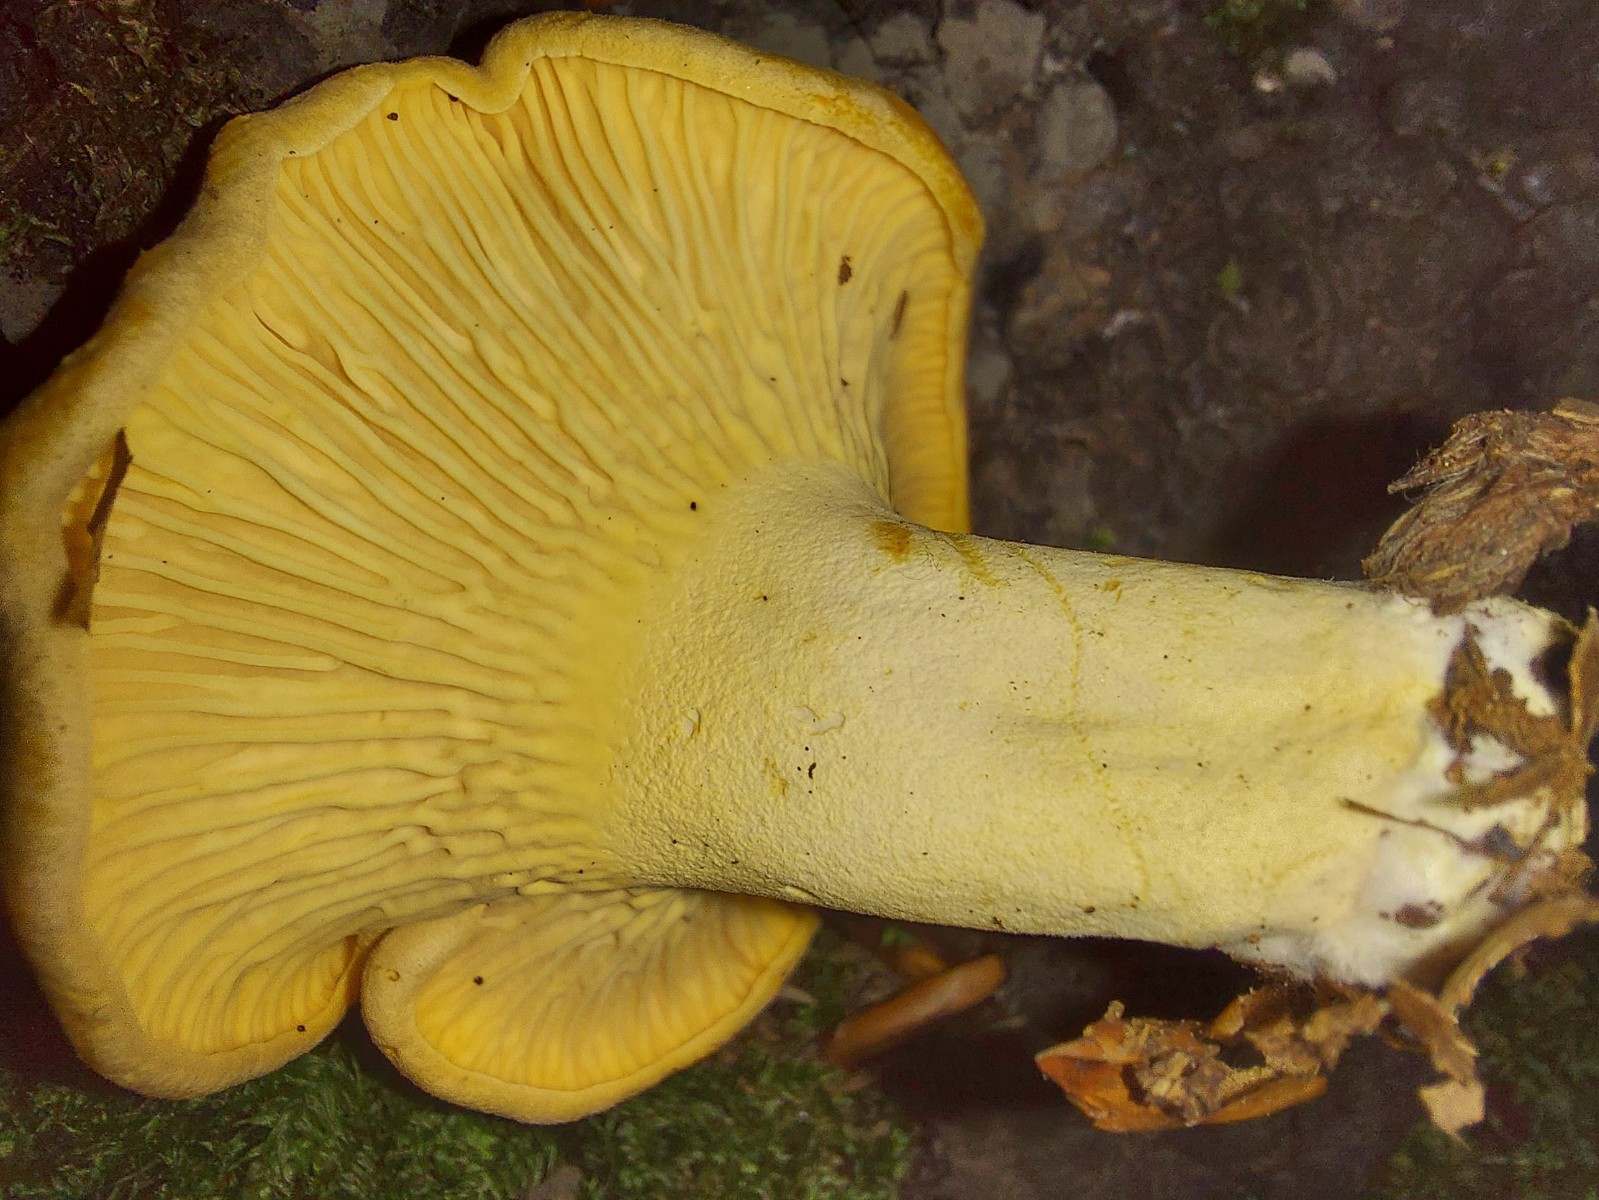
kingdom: Fungi
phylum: Basidiomycota
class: Agaricomycetes
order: Cantharellales
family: Hydnaceae
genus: Cantharellus
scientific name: Cantharellus pallens
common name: bleg kantarel
